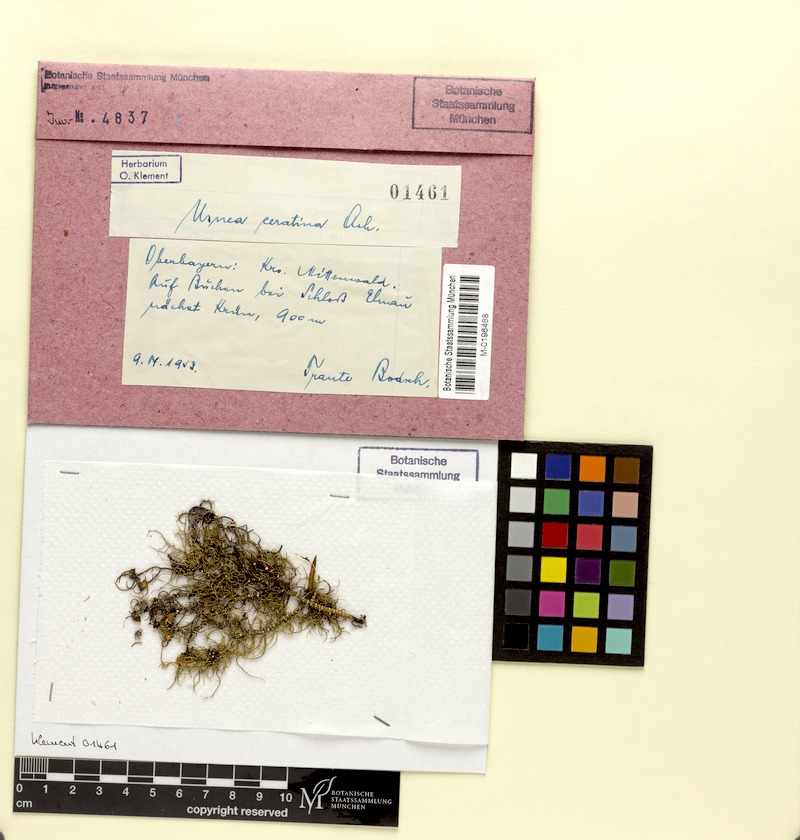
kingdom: Fungi
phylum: Ascomycota
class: Lecanoromycetes
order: Lecanorales
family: Parmeliaceae
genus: Usnea
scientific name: Usnea ceratina
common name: Warty beard lichen
